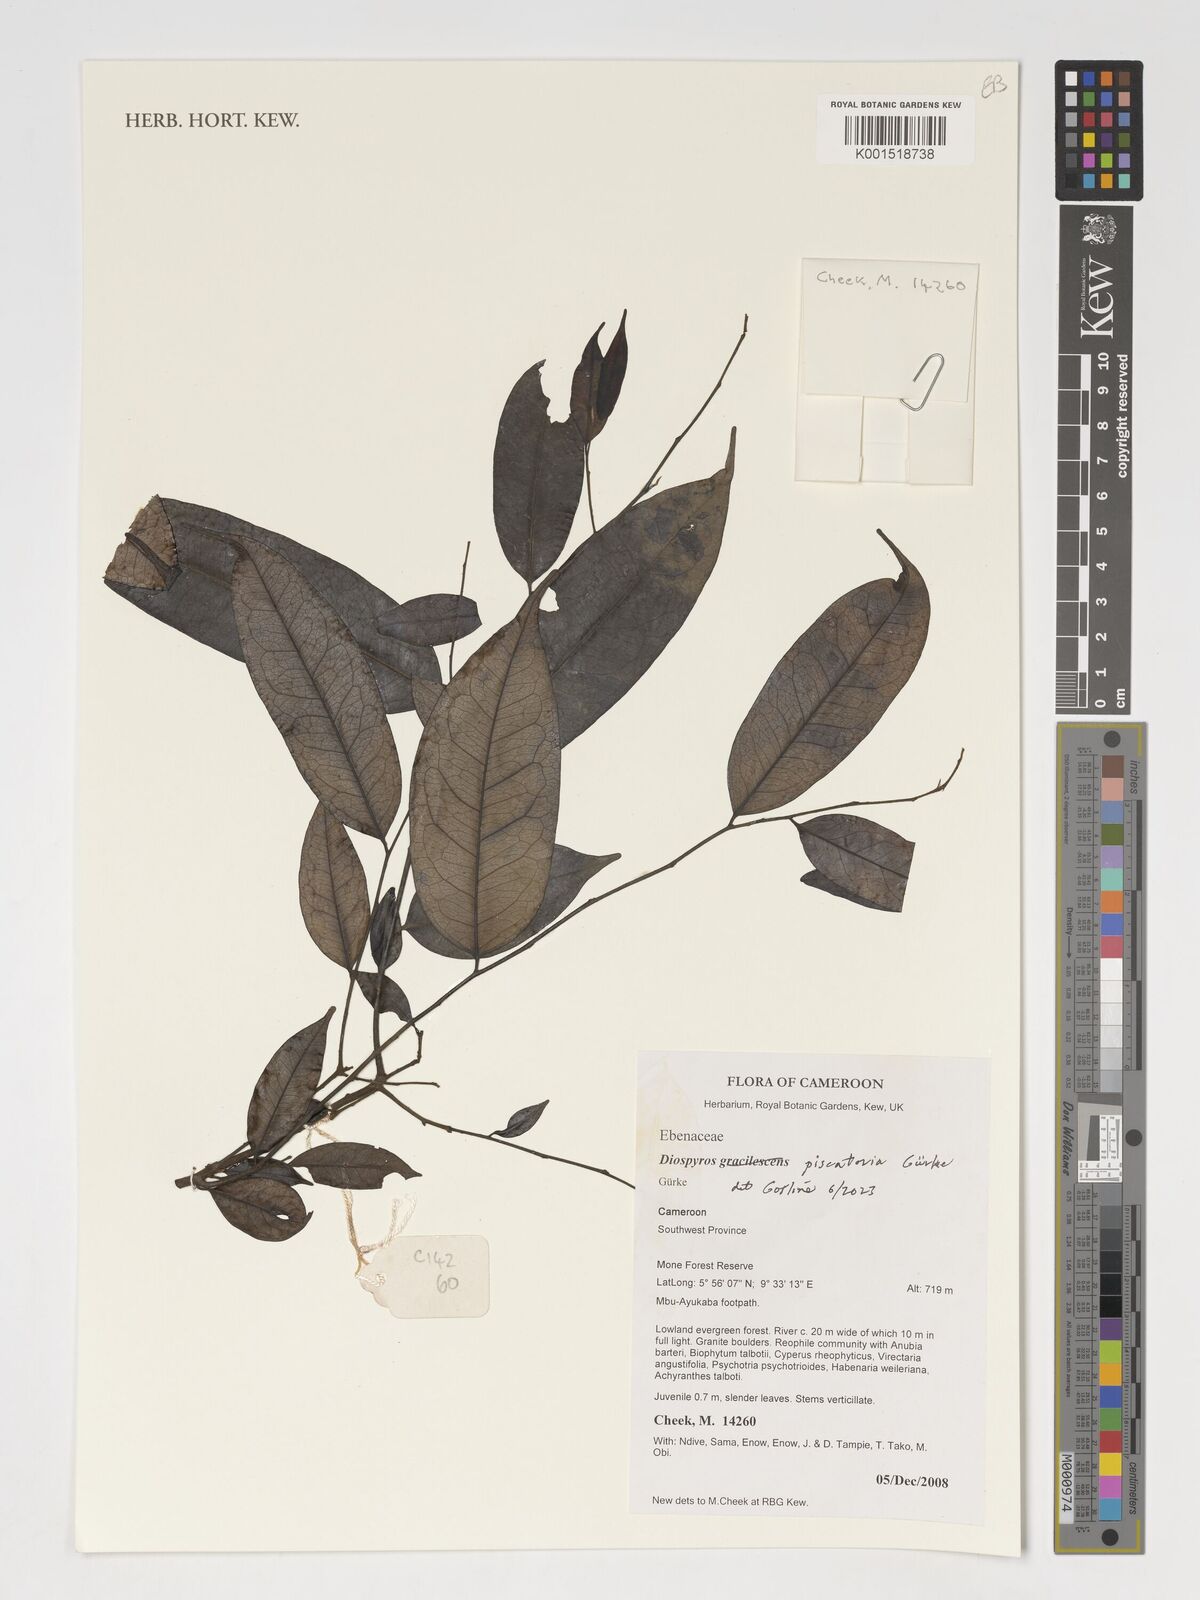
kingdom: Plantae
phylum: Tracheophyta
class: Magnoliopsida
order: Ericales
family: Ebenaceae
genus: Diospyros
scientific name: Diospyros gracilescens
